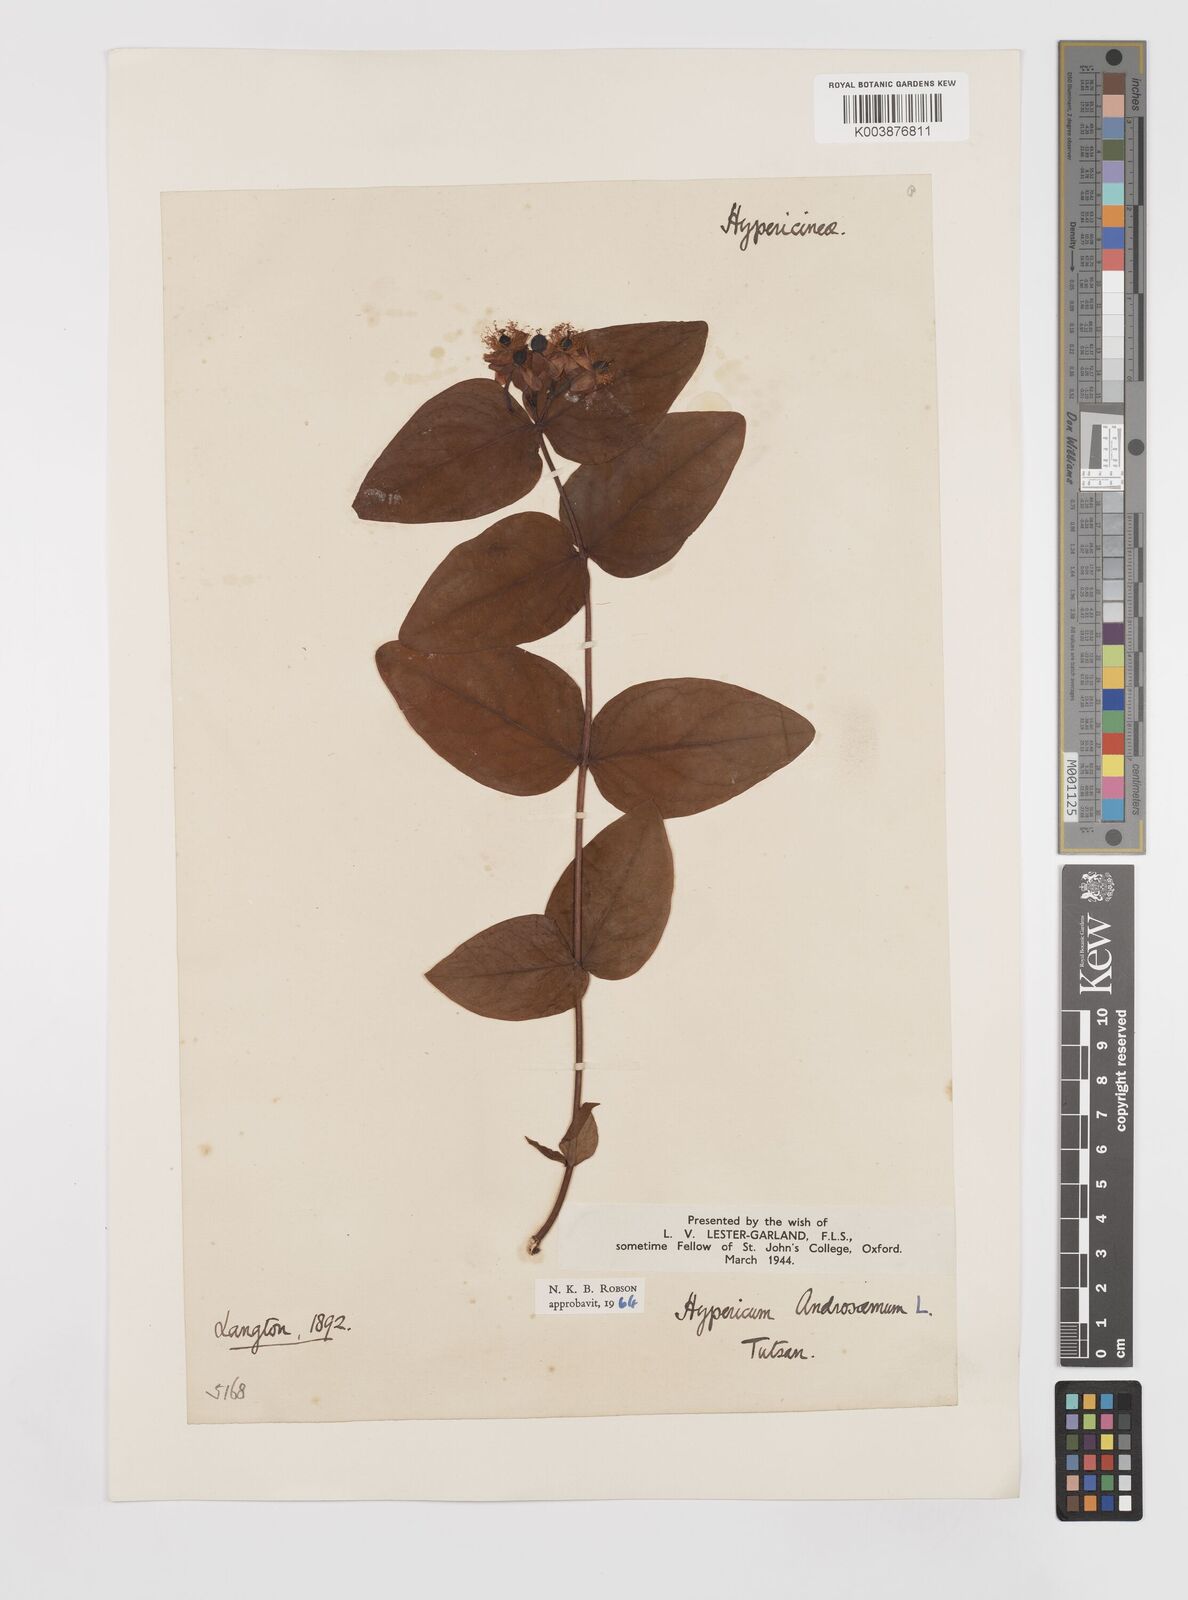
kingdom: Plantae
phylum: Tracheophyta
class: Magnoliopsida
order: Malpighiales
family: Hypericaceae
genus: Hypericum
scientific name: Hypericum androsaemum
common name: Sweet-amber
